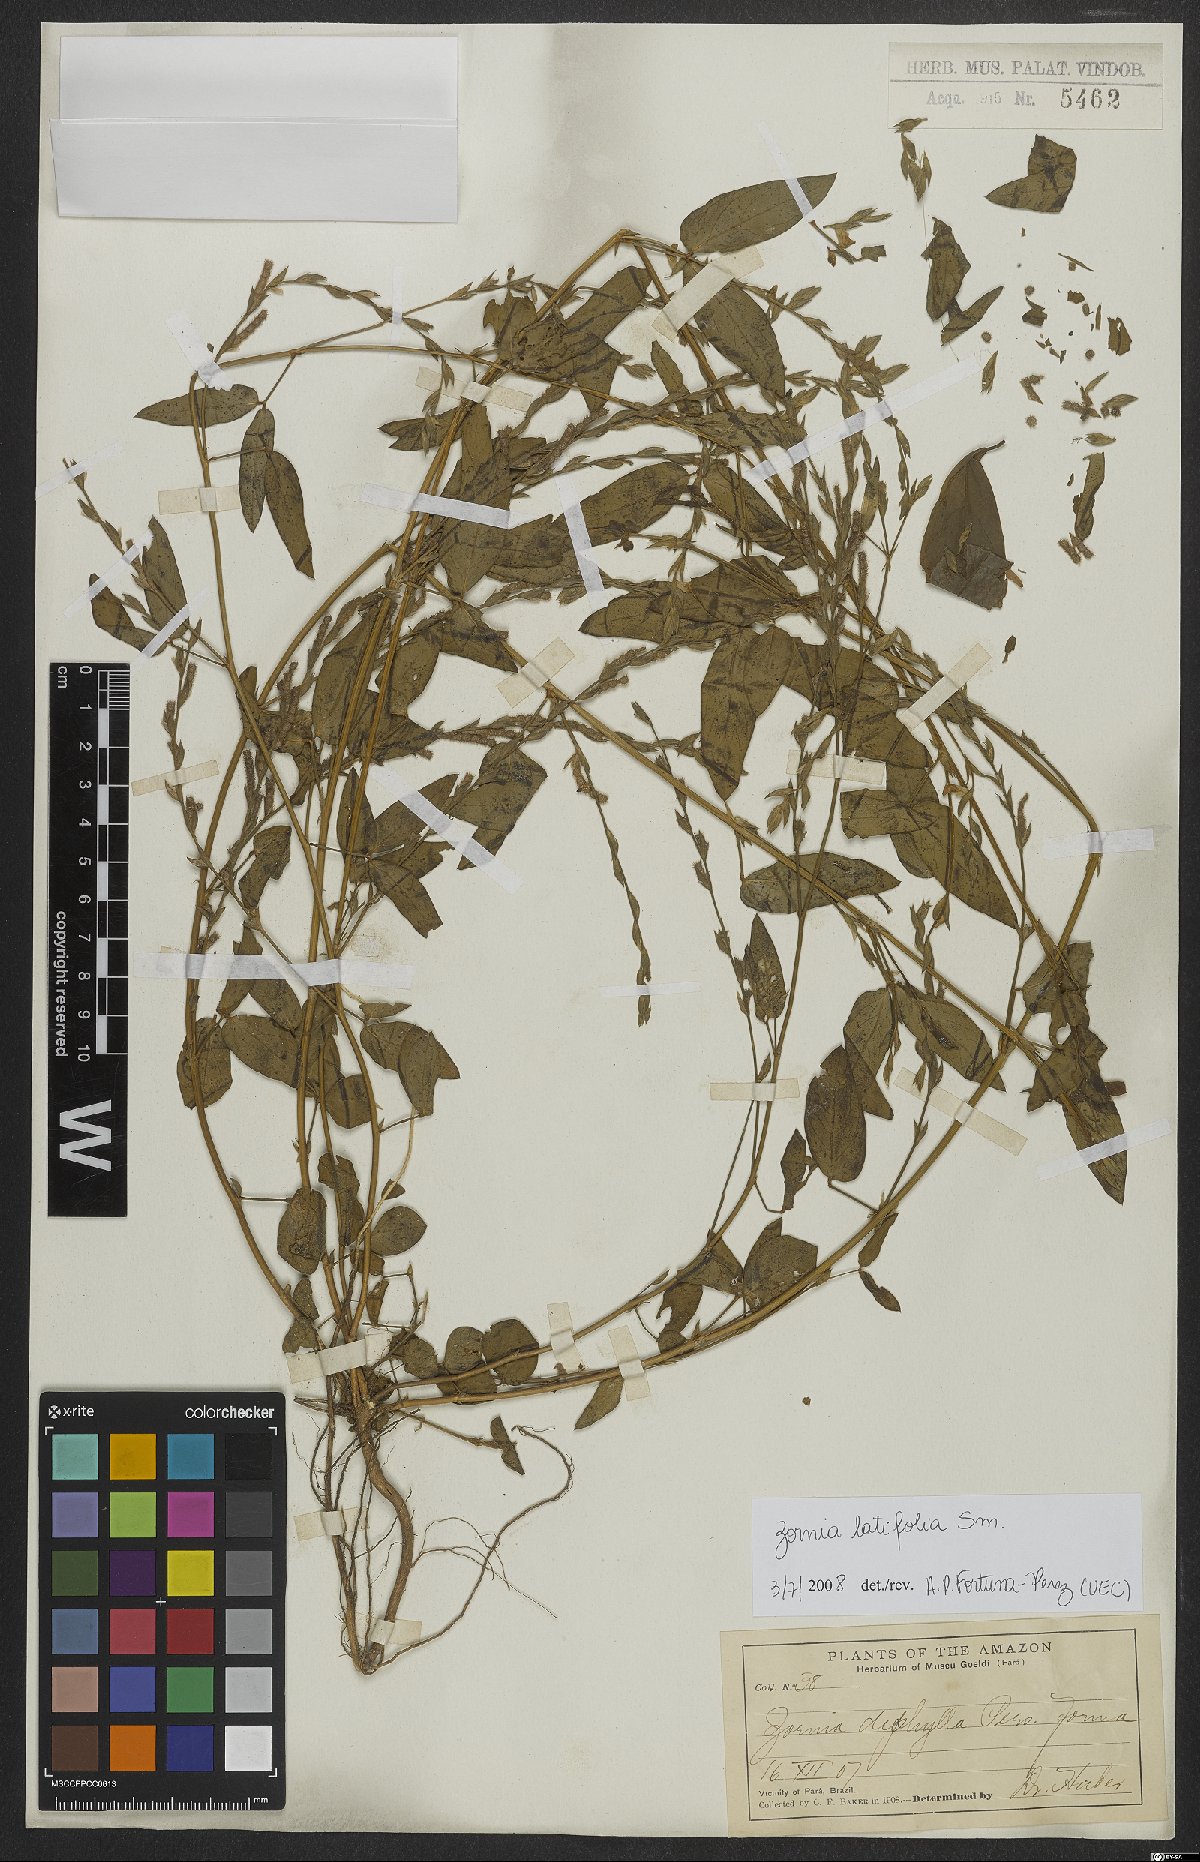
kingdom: Plantae
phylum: Tracheophyta
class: Magnoliopsida
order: Fabales
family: Fabaceae
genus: Zornia
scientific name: Zornia sericea
